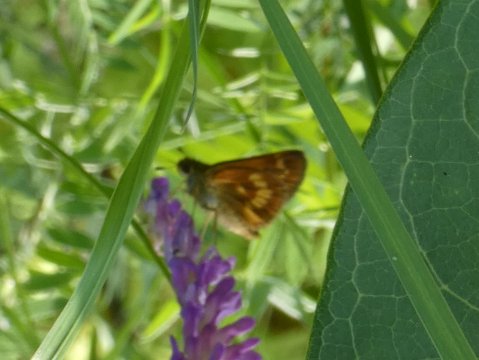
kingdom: Animalia
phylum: Arthropoda
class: Insecta
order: Lepidoptera
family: Hesperiidae
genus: Polites
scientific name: Polites
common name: Long Dash Skipper
